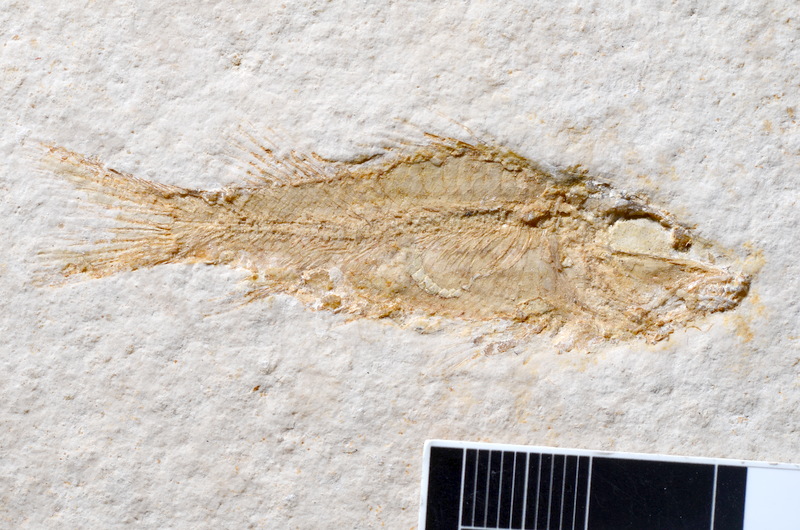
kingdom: Animalia
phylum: Chordata
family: Macrosemiidae
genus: Notagogus
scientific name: Notagogus decoratus
